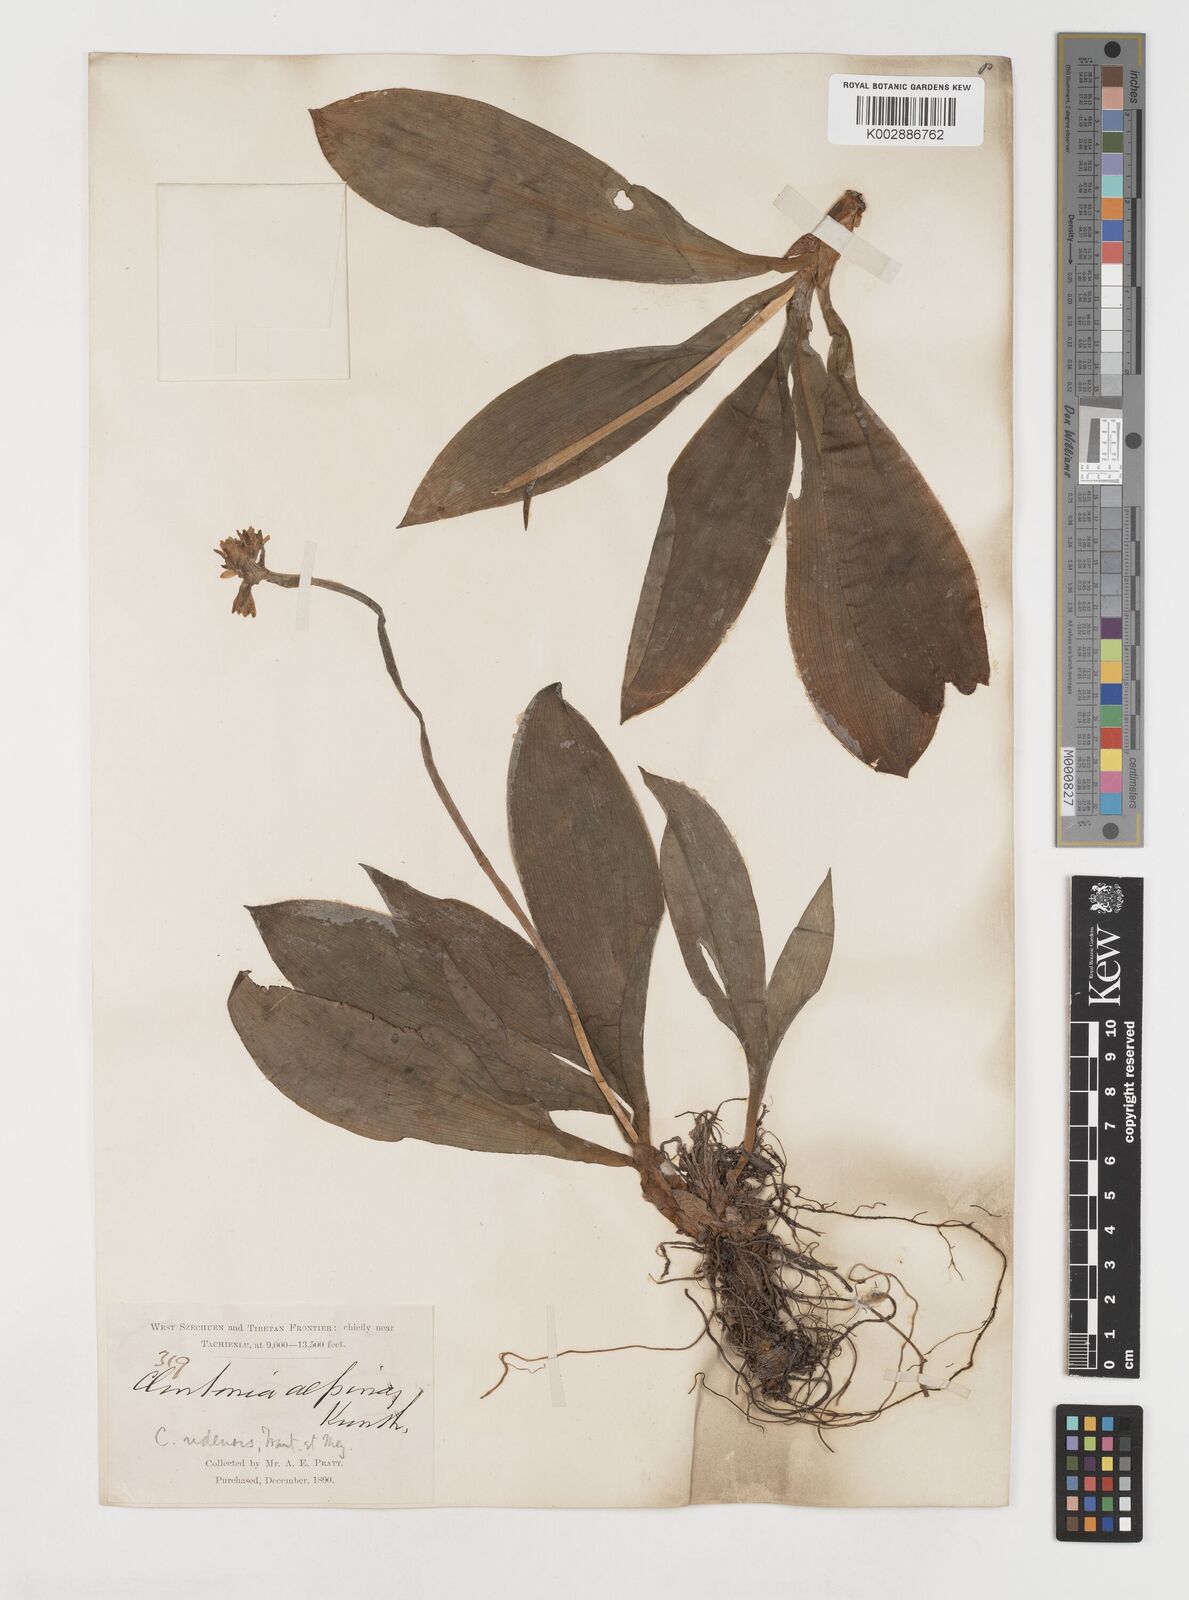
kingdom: Plantae
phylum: Tracheophyta
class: Liliopsida
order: Liliales
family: Liliaceae
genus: Clintonia
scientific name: Clintonia udensis
